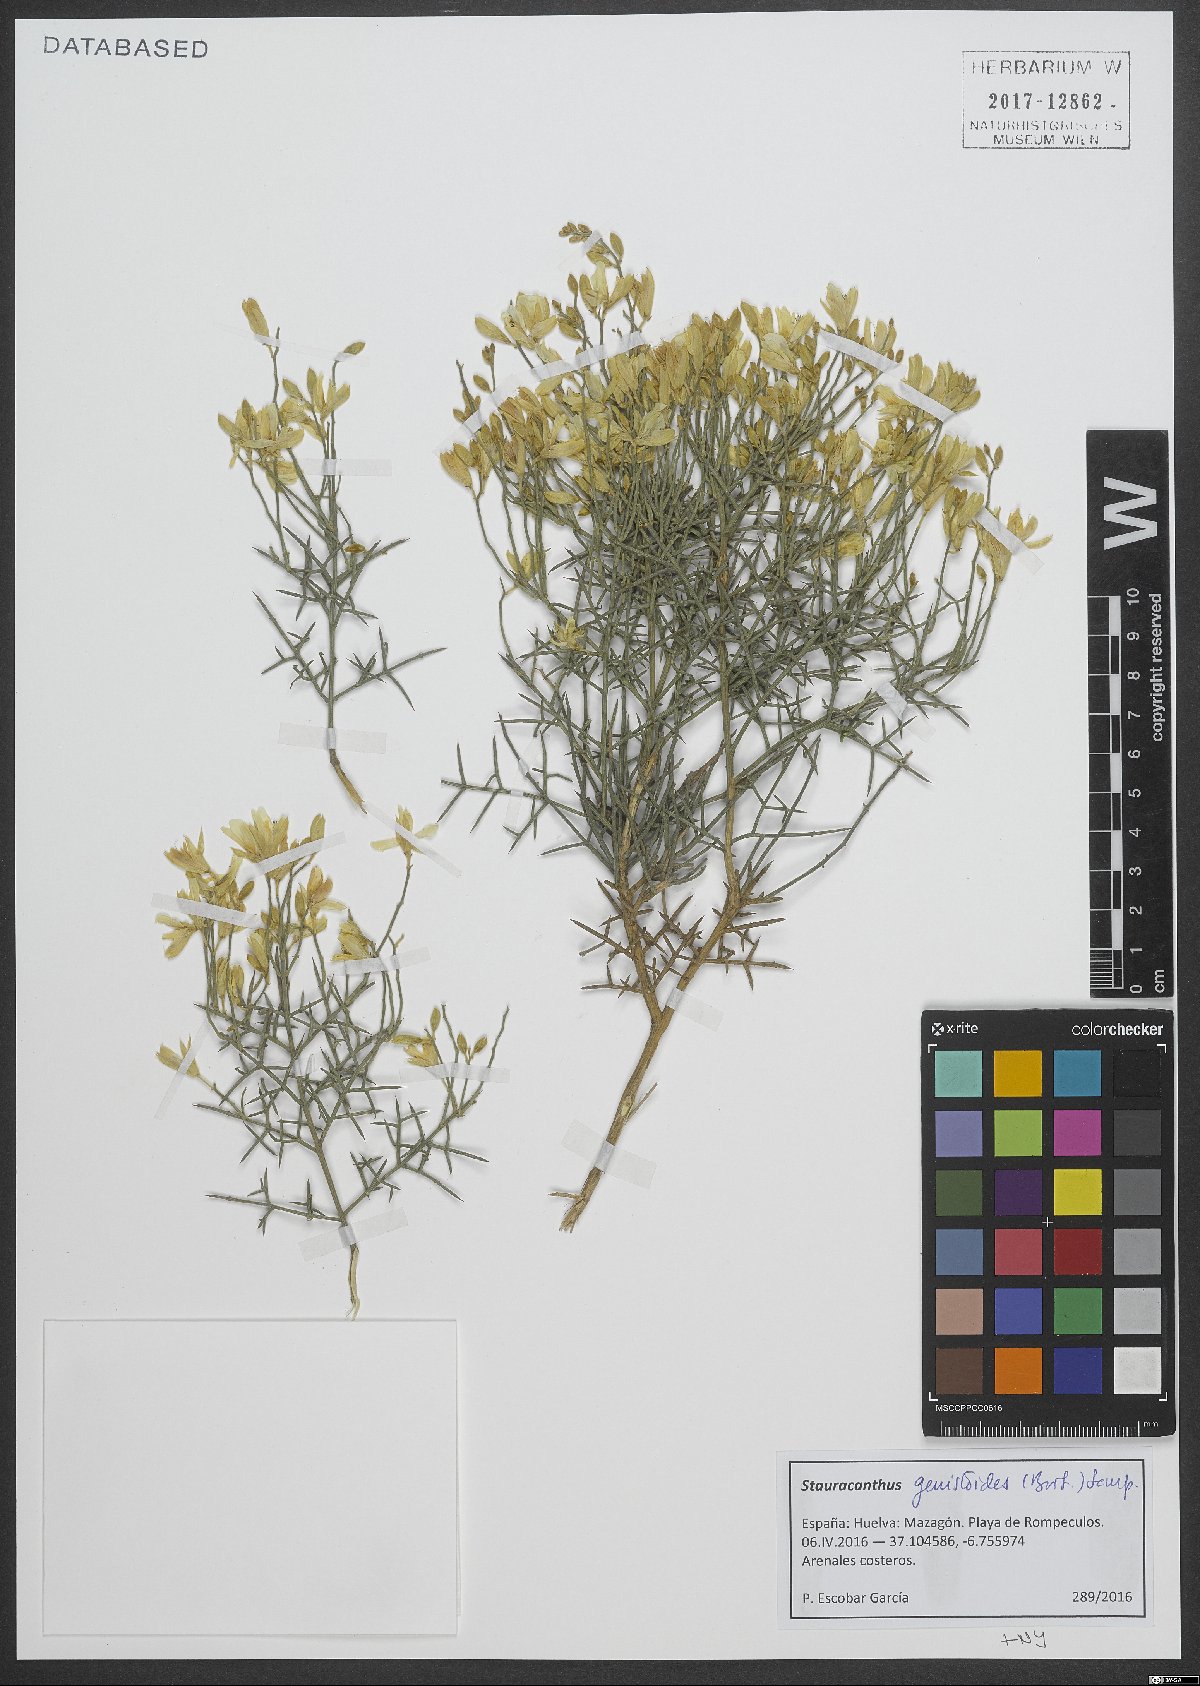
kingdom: Plantae
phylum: Tracheophyta
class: Magnoliopsida
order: Fabales
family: Fabaceae
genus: Stauracanthus
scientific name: Stauracanthus genistoides
